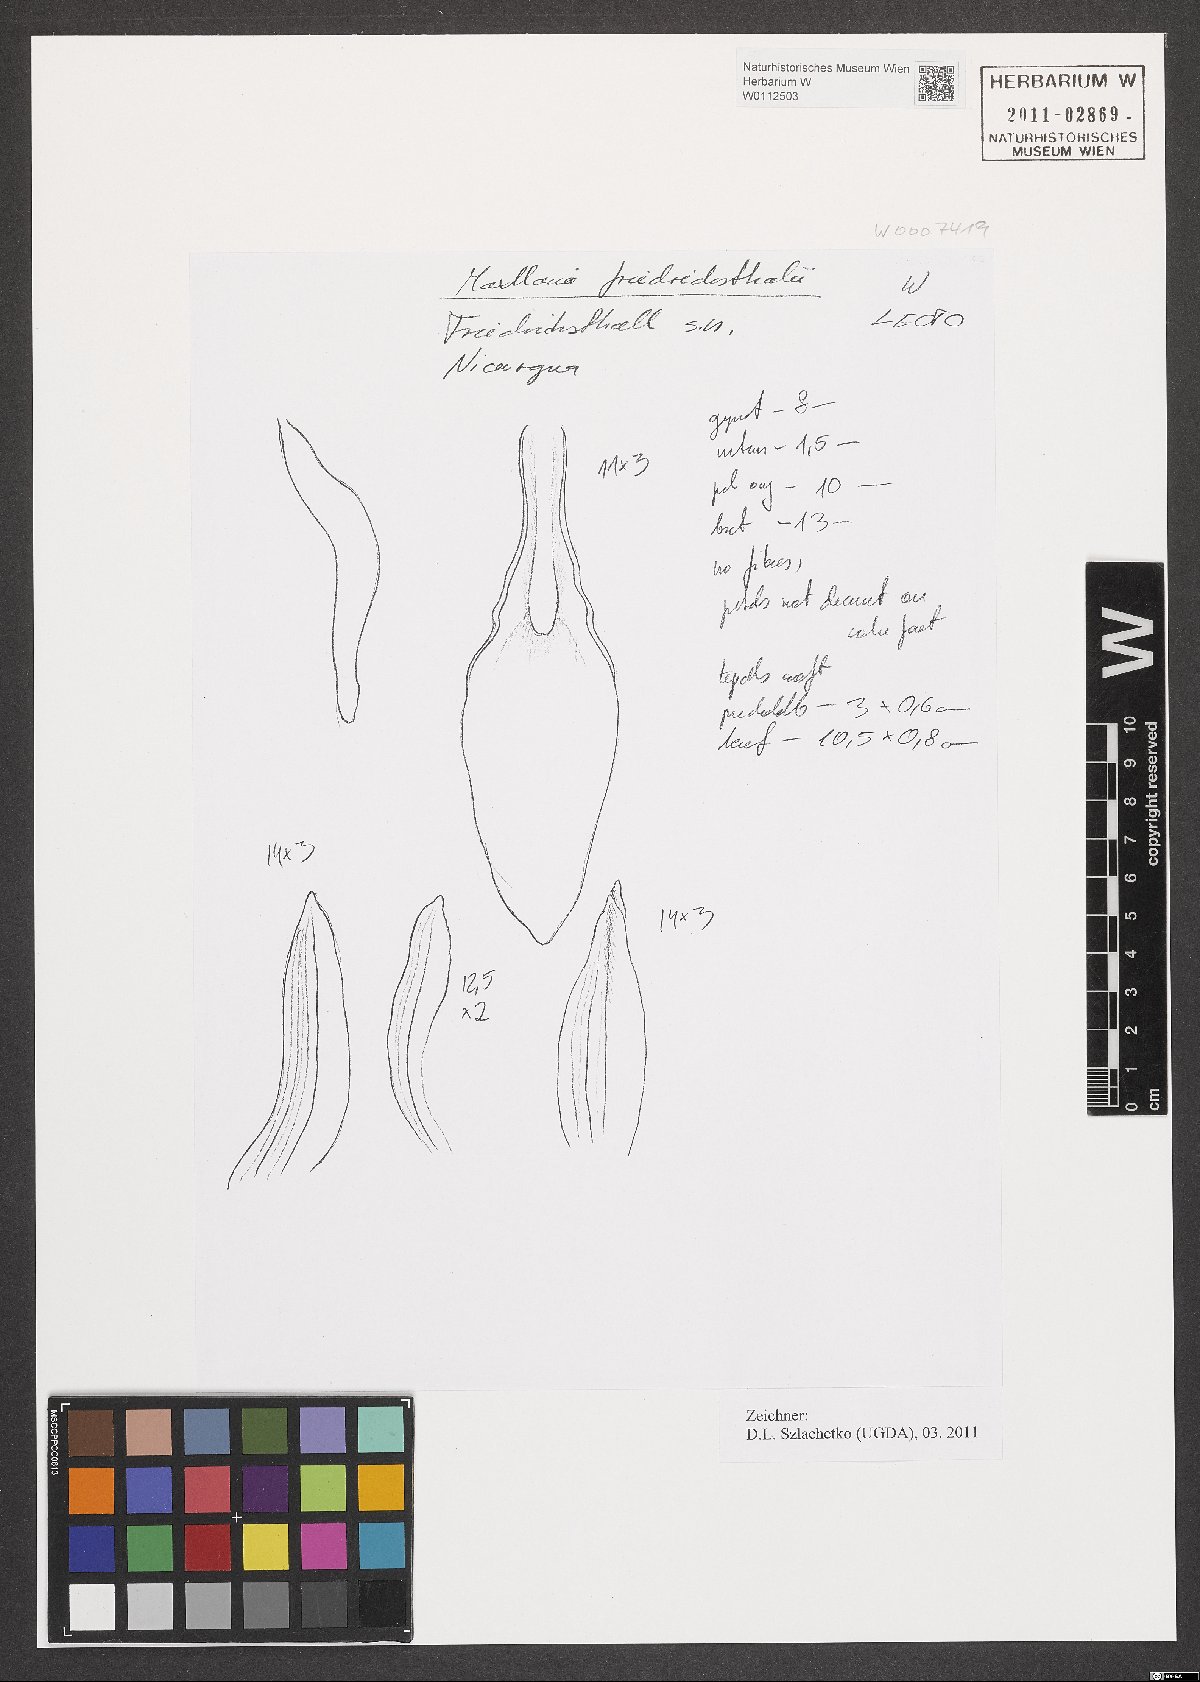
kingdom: Plantae
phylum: Tracheophyta
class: Liliopsida
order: Asparagales
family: Orchidaceae
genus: Maxillaria
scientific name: Maxillaria friedrichsthalii
